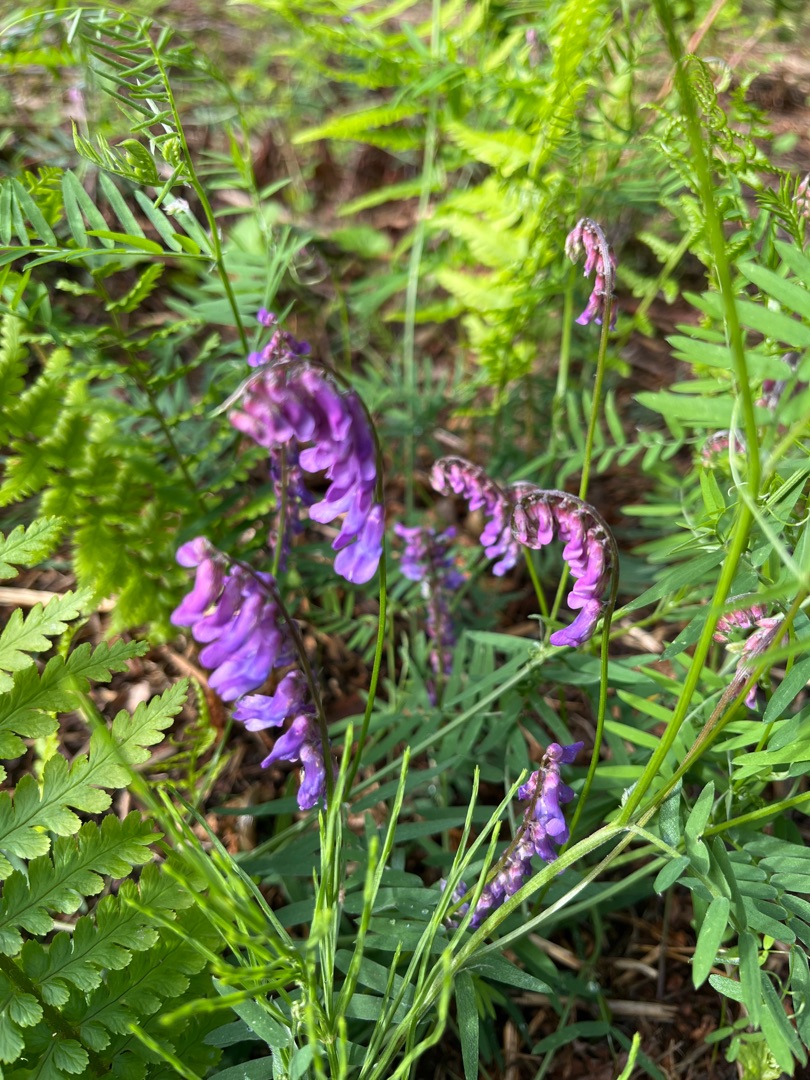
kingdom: Plantae
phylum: Tracheophyta
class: Magnoliopsida
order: Fabales
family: Fabaceae
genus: Vicia
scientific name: Vicia cracca
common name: Muse-vikke
